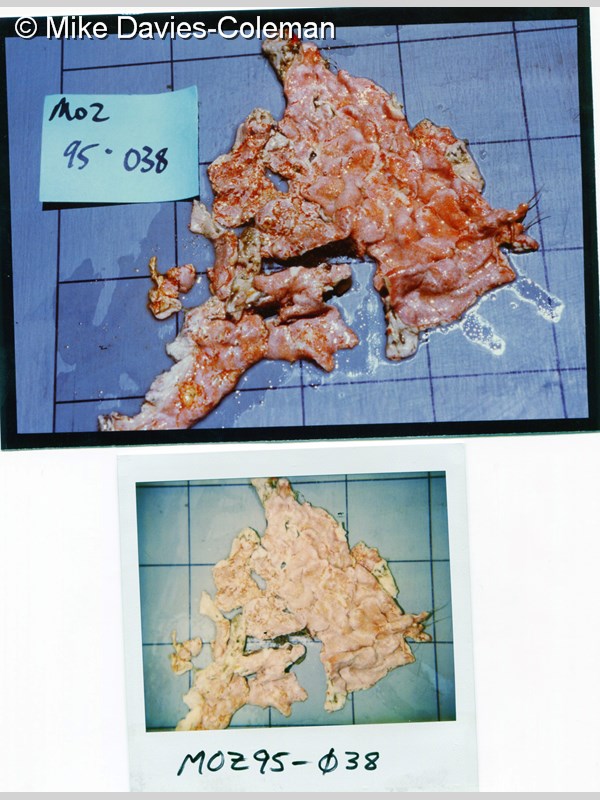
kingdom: Animalia
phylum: Chordata
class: Ascidiacea
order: Aplousobranchia
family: Didemnidae
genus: Didemnum
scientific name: Didemnum
